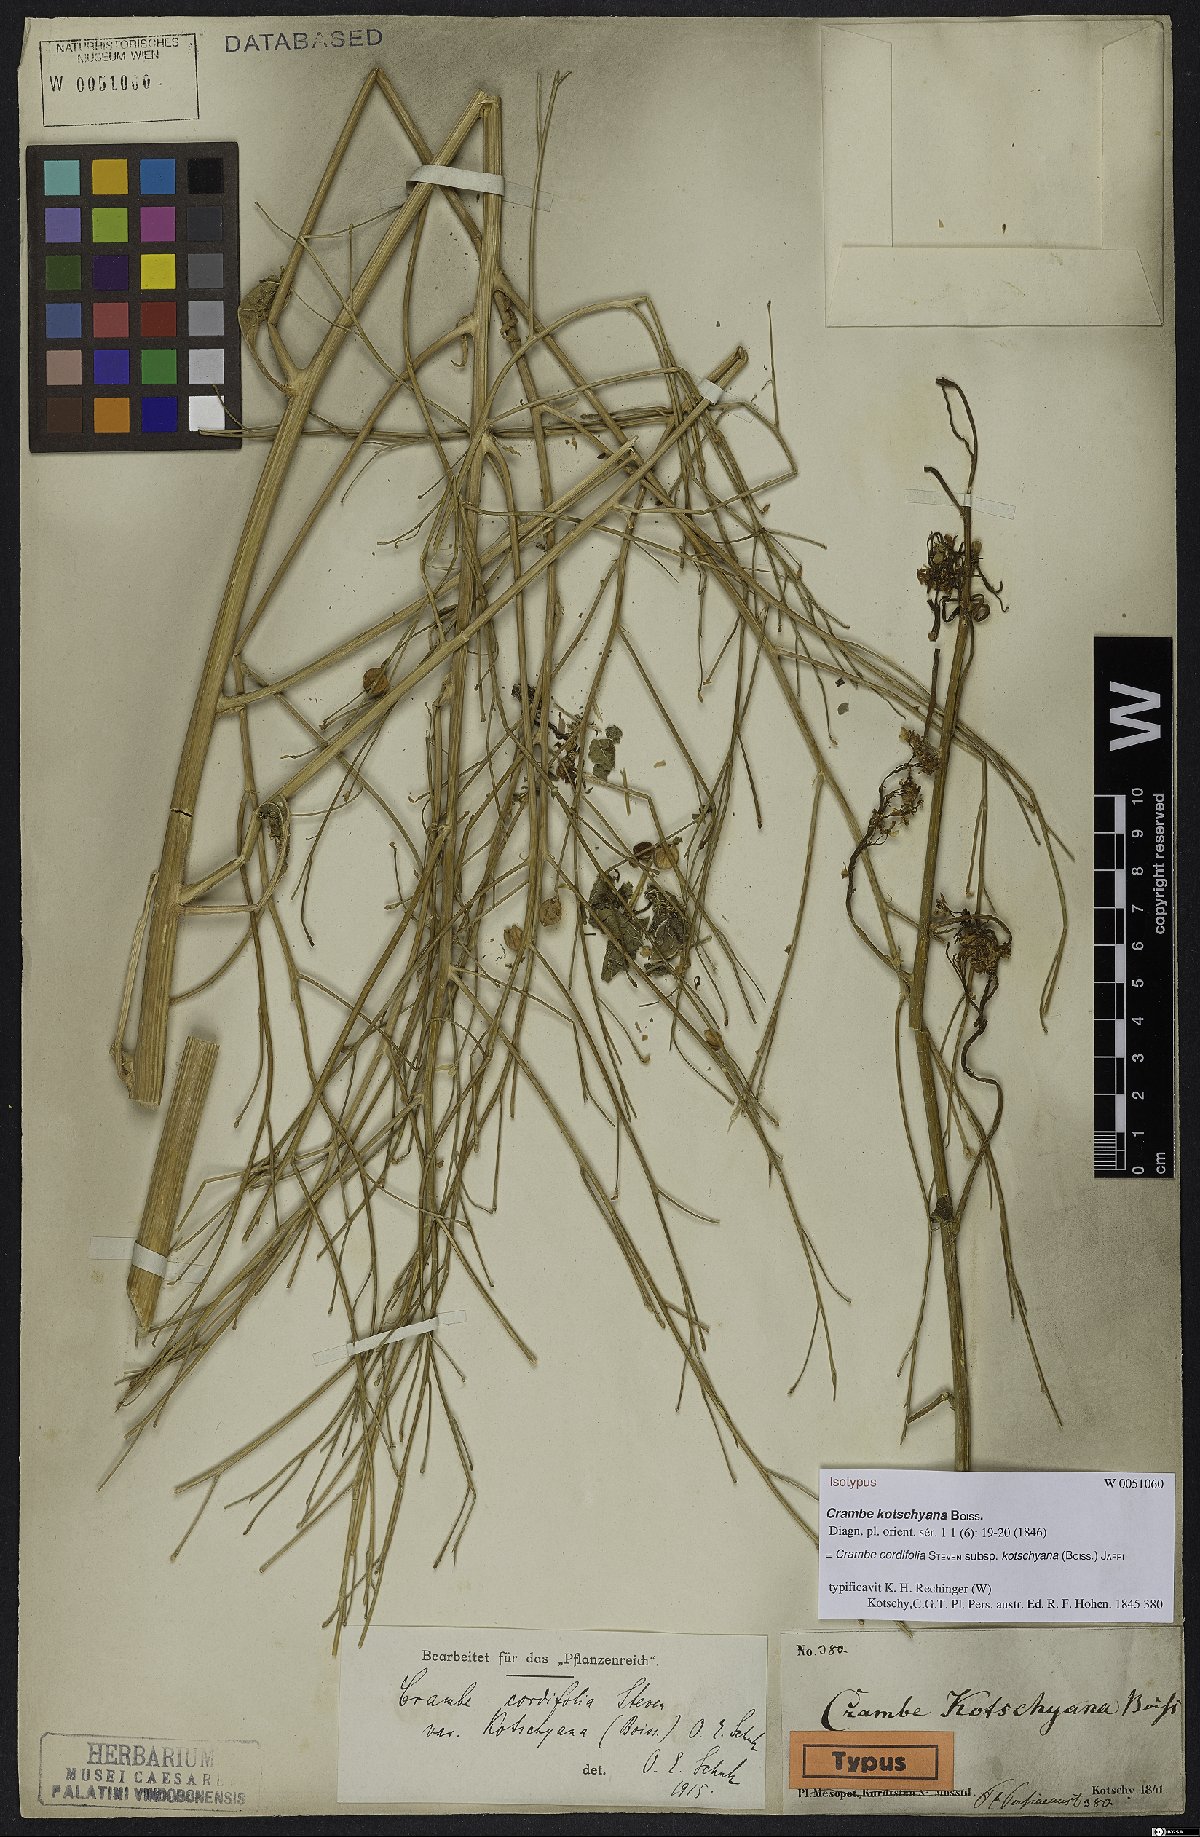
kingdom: Plantae
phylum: Tracheophyta
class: Magnoliopsida
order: Brassicales
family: Brassicaceae
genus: Crambe
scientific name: Crambe kotschyana
